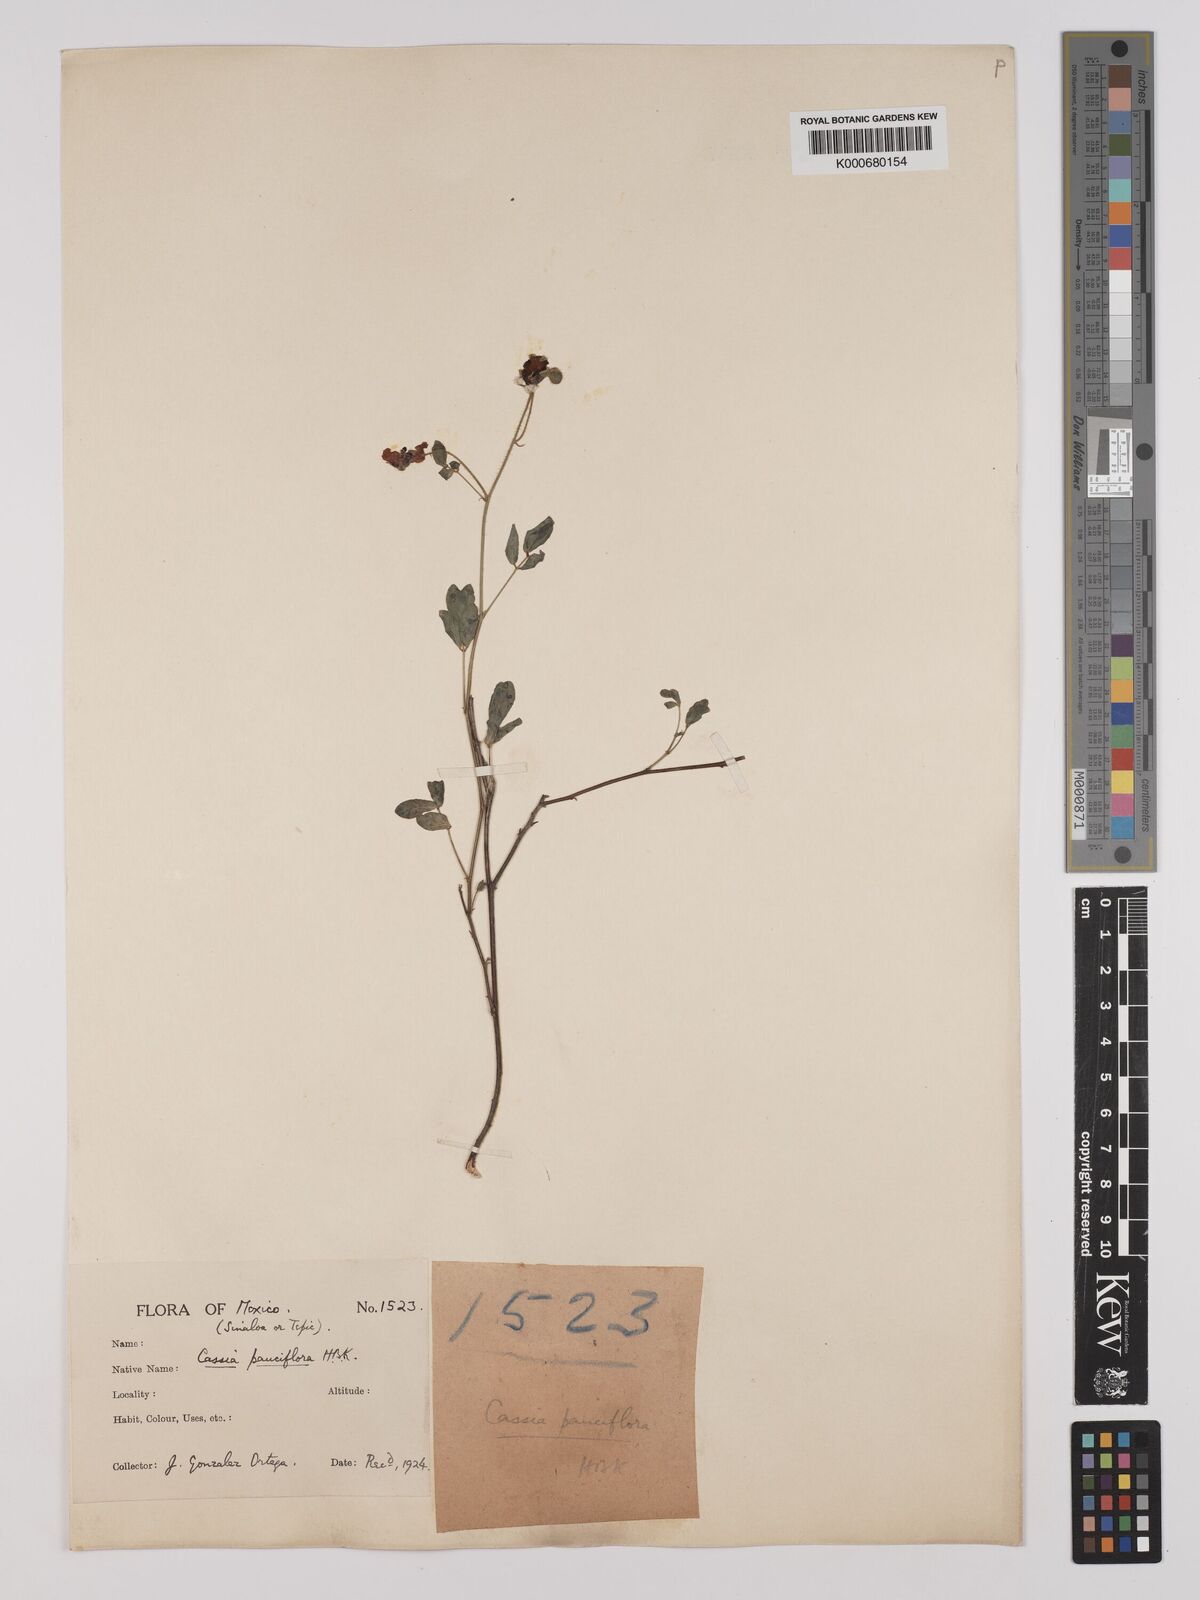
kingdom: Plantae
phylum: Tracheophyta
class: Magnoliopsida
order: Fabales
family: Fabaceae
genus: Chamaecrista
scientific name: Chamaecrista hispidula
